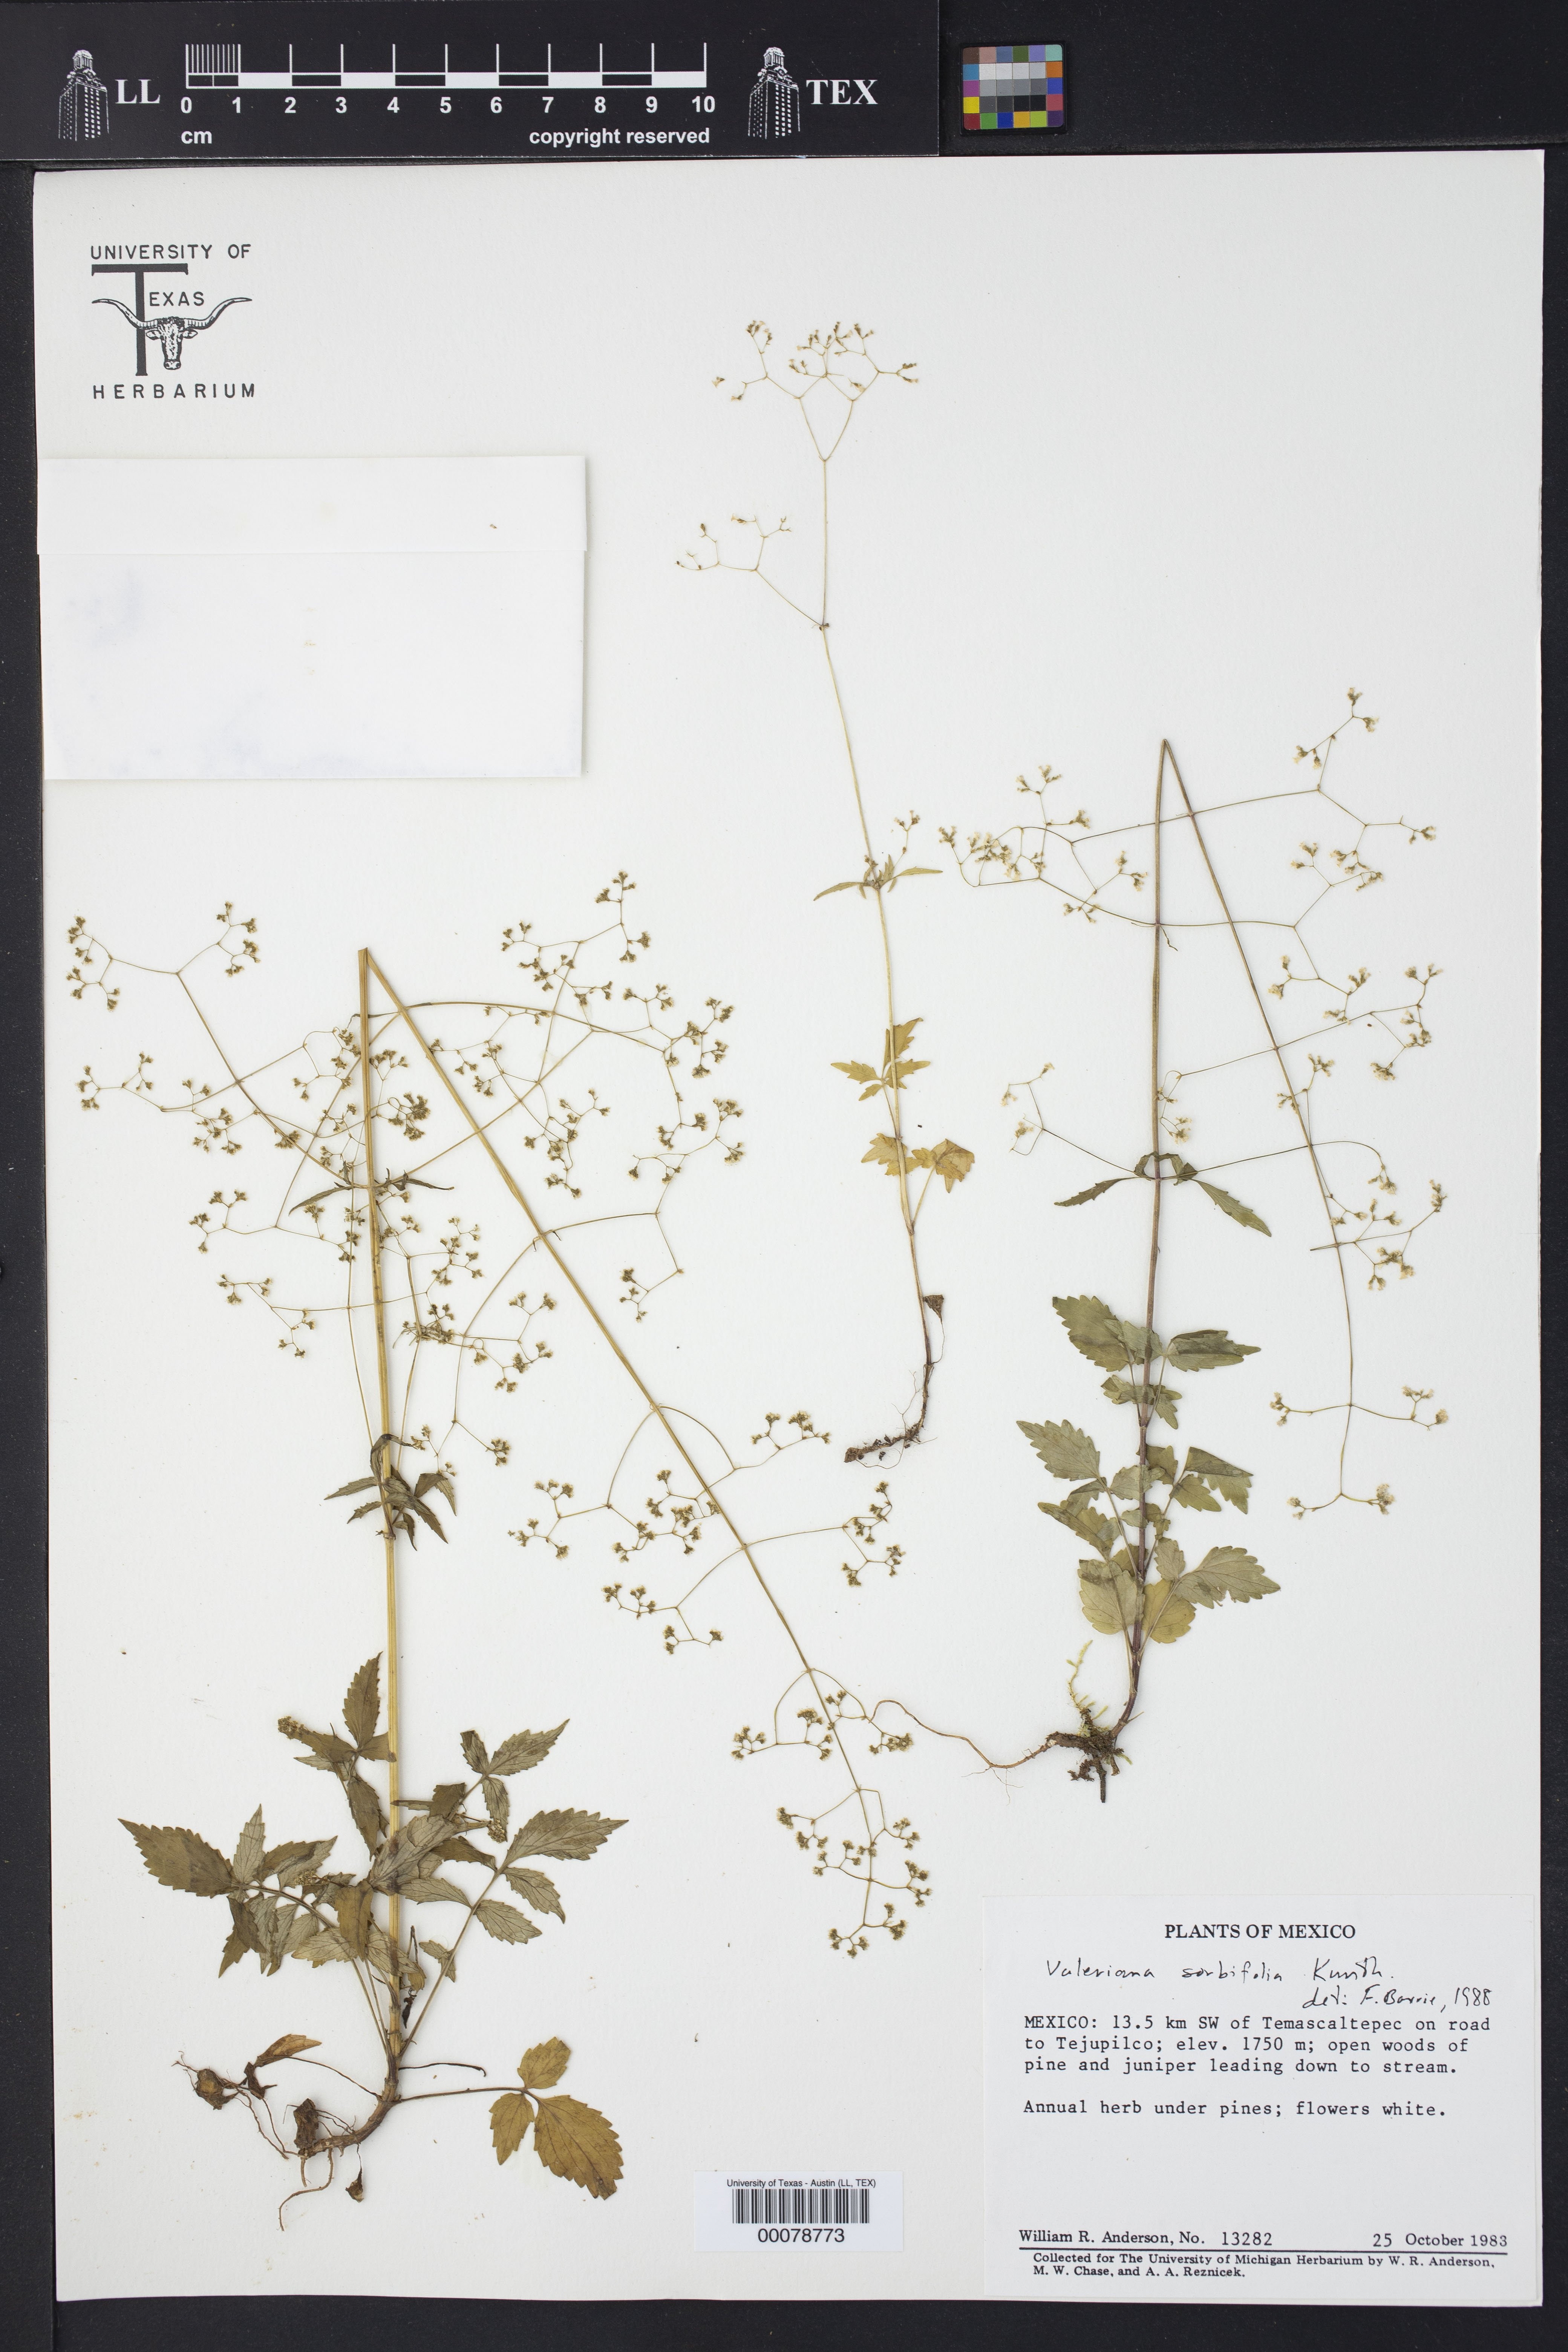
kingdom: Plantae
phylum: Tracheophyta
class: Magnoliopsida
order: Dipsacales
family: Caprifoliaceae
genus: Valeriana
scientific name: Valeriana sorbifolia
